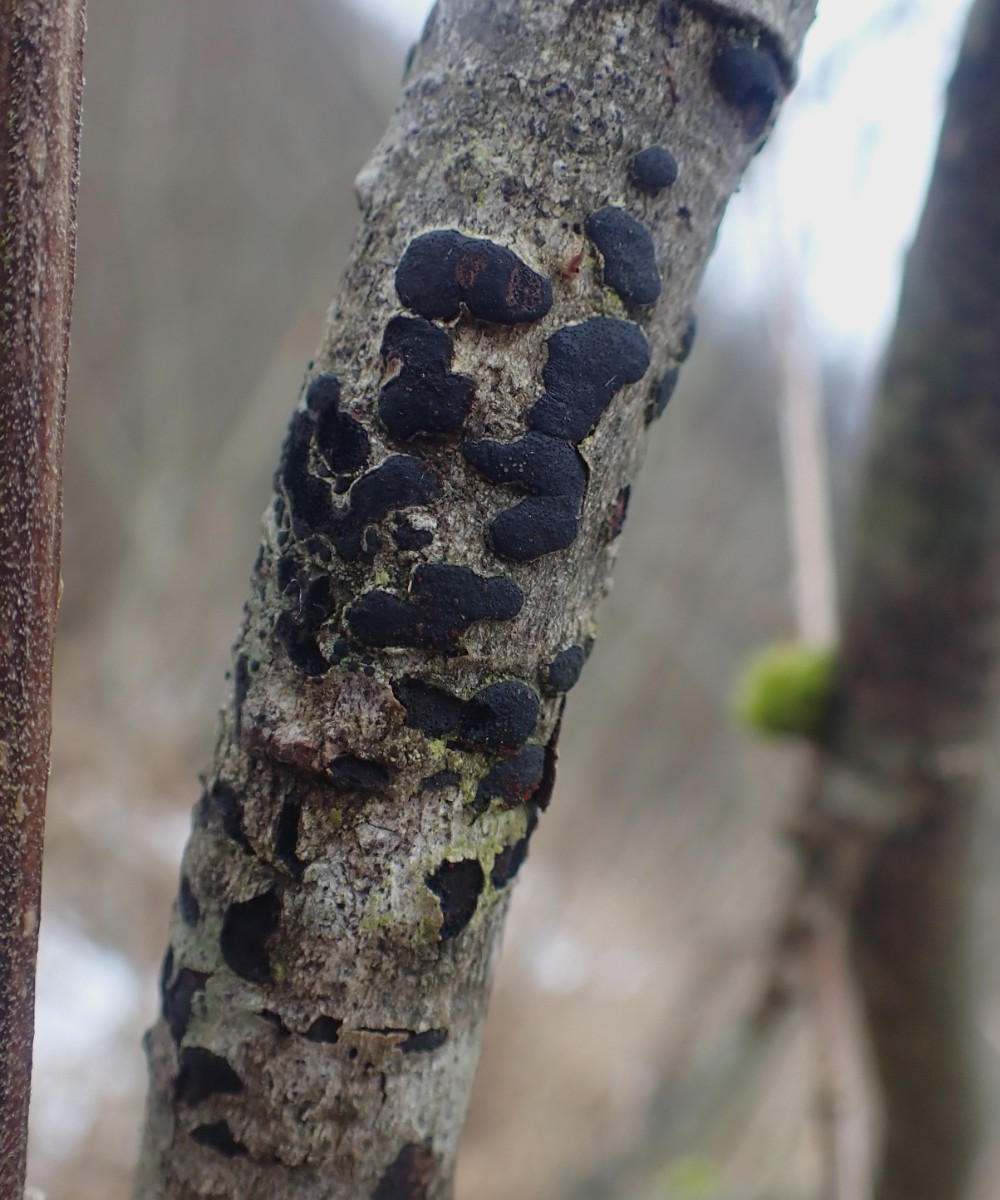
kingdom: Fungi
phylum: Ascomycota
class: Sordariomycetes
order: Hypocreales
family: Nectriaceae
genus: Dialonectria
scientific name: Dialonectria diatrypicola
